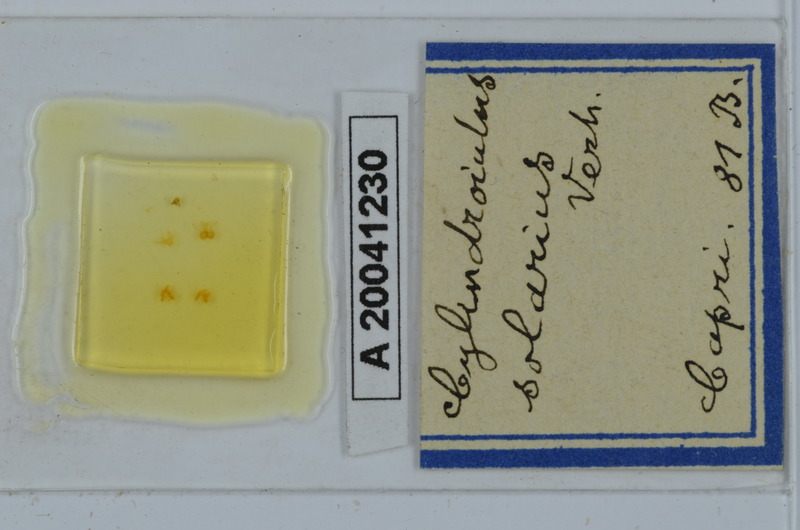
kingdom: Animalia
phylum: Arthropoda
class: Diplopoda
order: Julida
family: Julidae
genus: Cylindroiulus
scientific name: Cylindroiulus solarius
